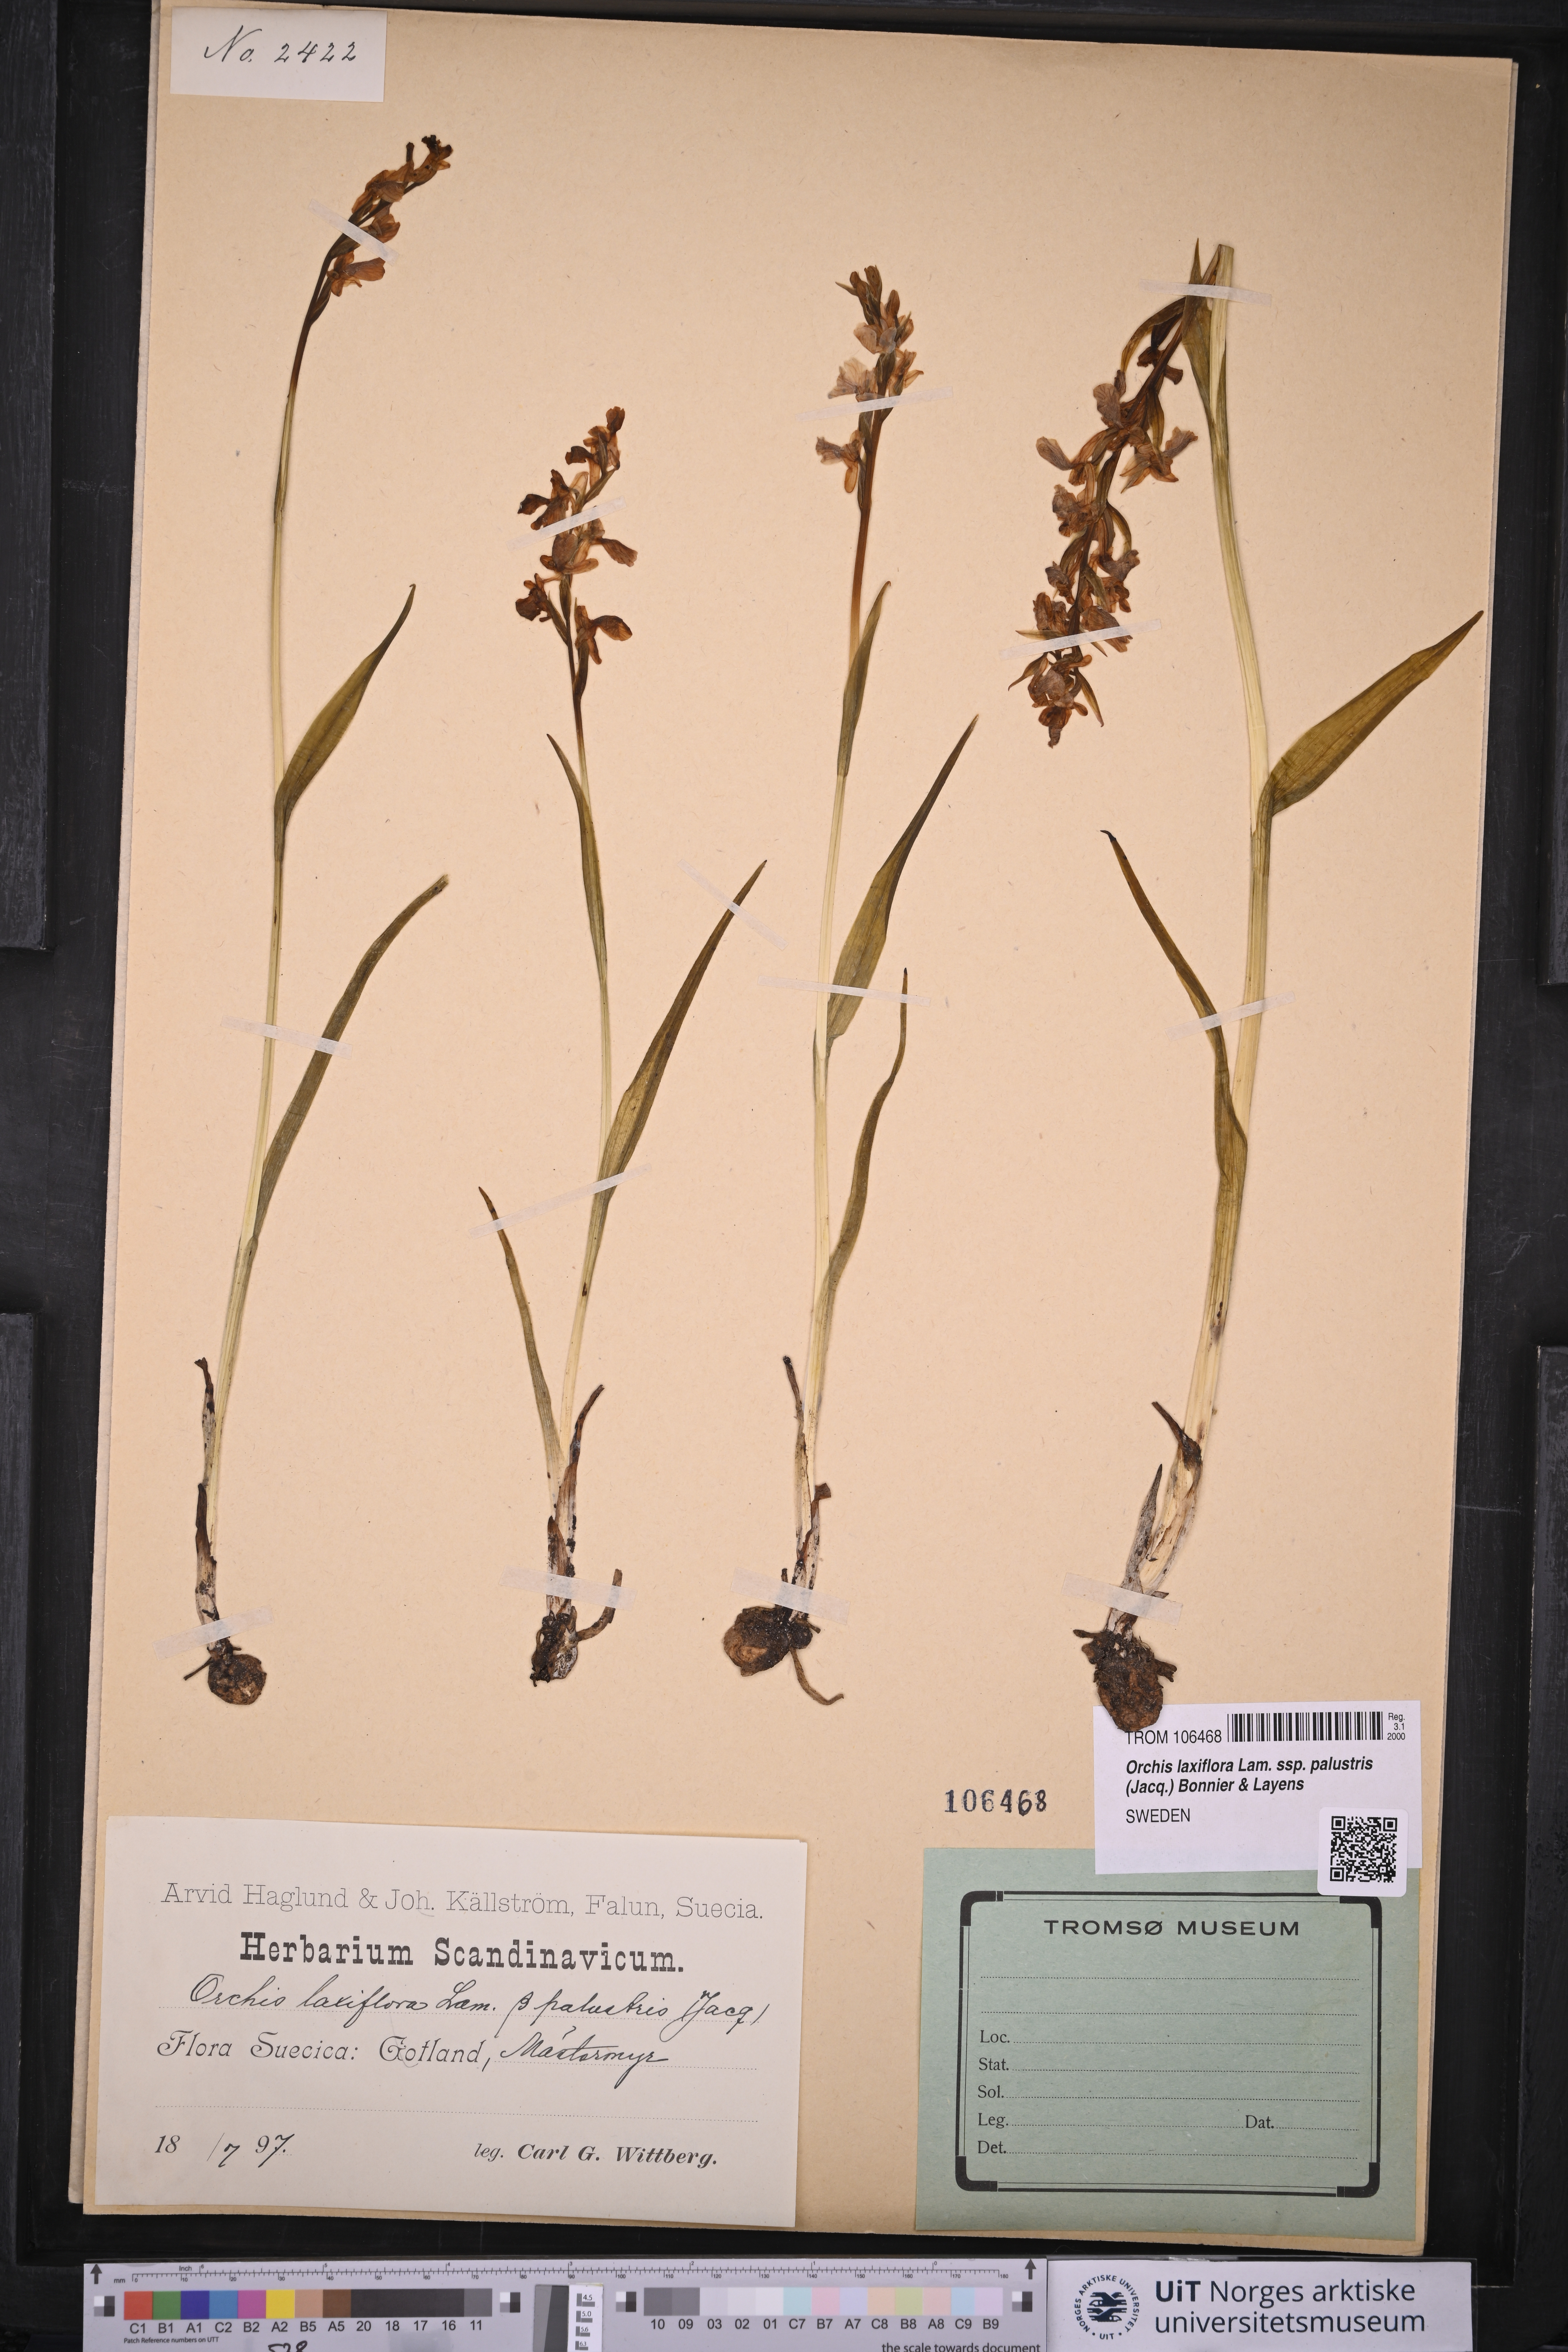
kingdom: Plantae
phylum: Tracheophyta
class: Liliopsida
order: Asparagales
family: Orchidaceae
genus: Anacamptis
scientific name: Anacamptis palustris
